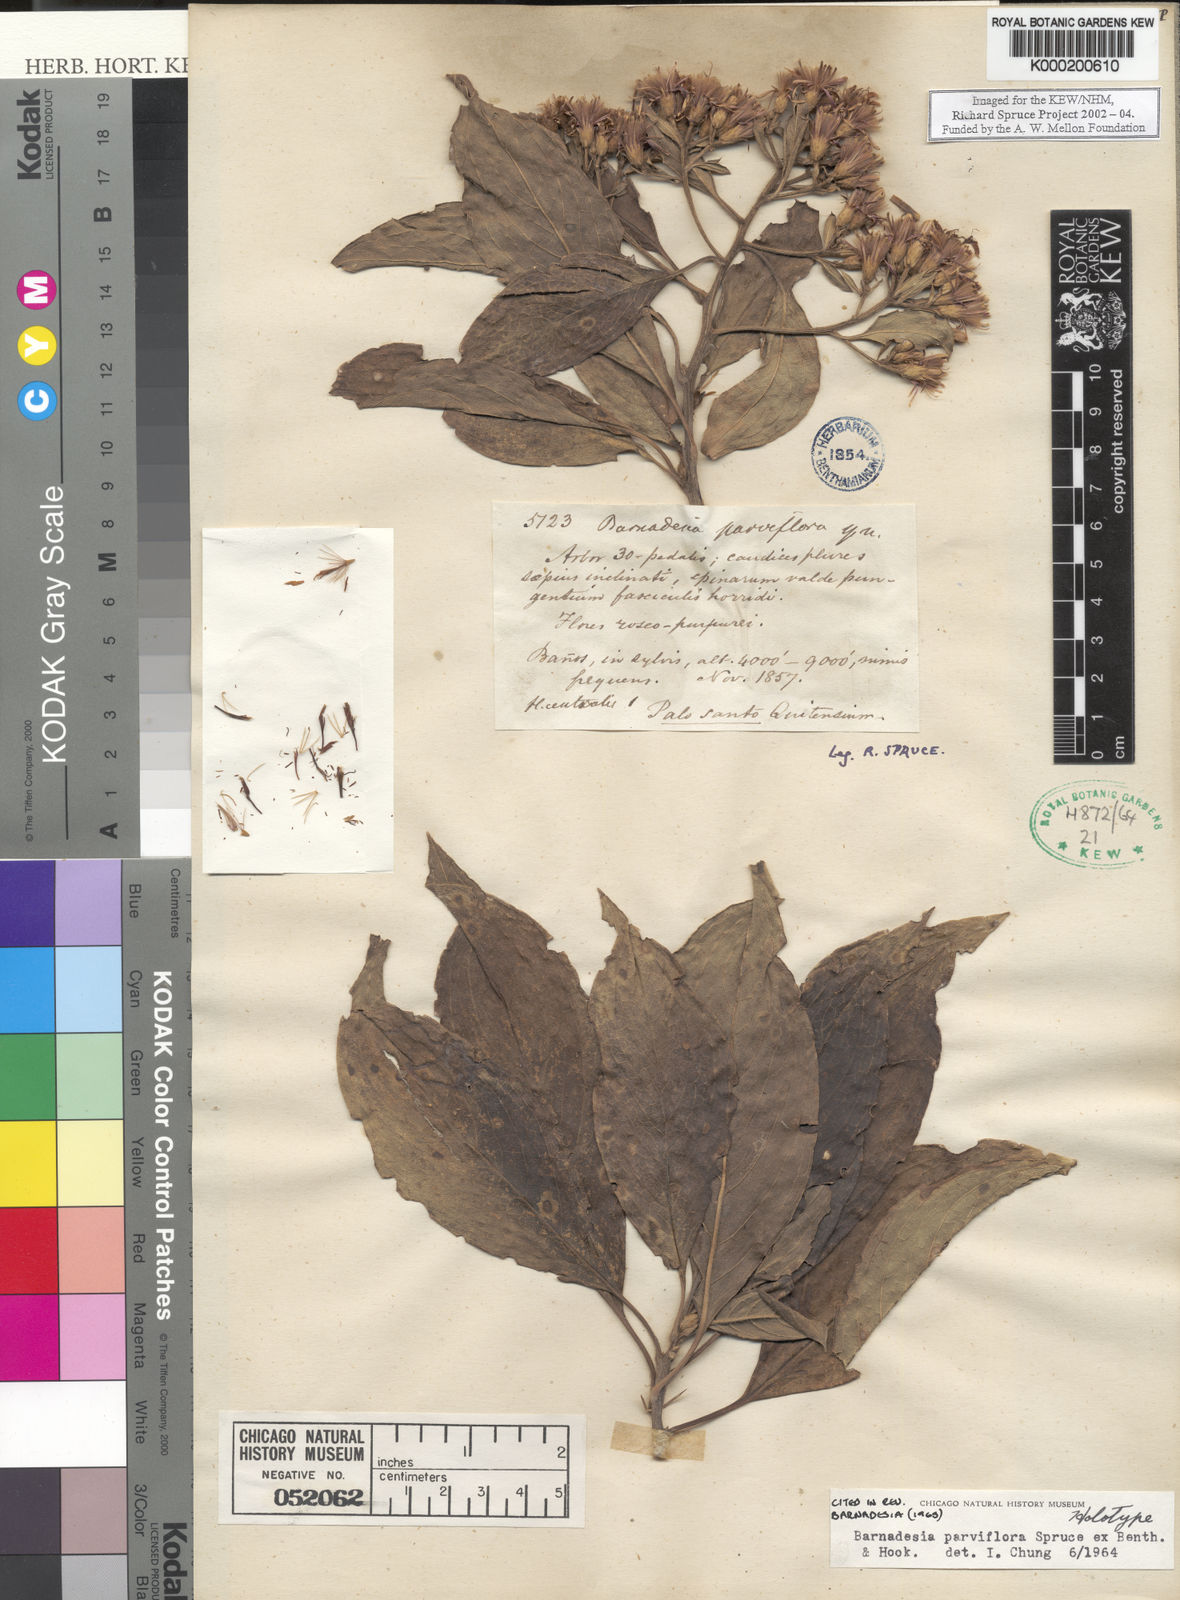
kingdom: Plantae
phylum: Tracheophyta
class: Magnoliopsida
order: Asterales
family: Asteraceae
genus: Barnadesia
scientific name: Barnadesia parviflora
